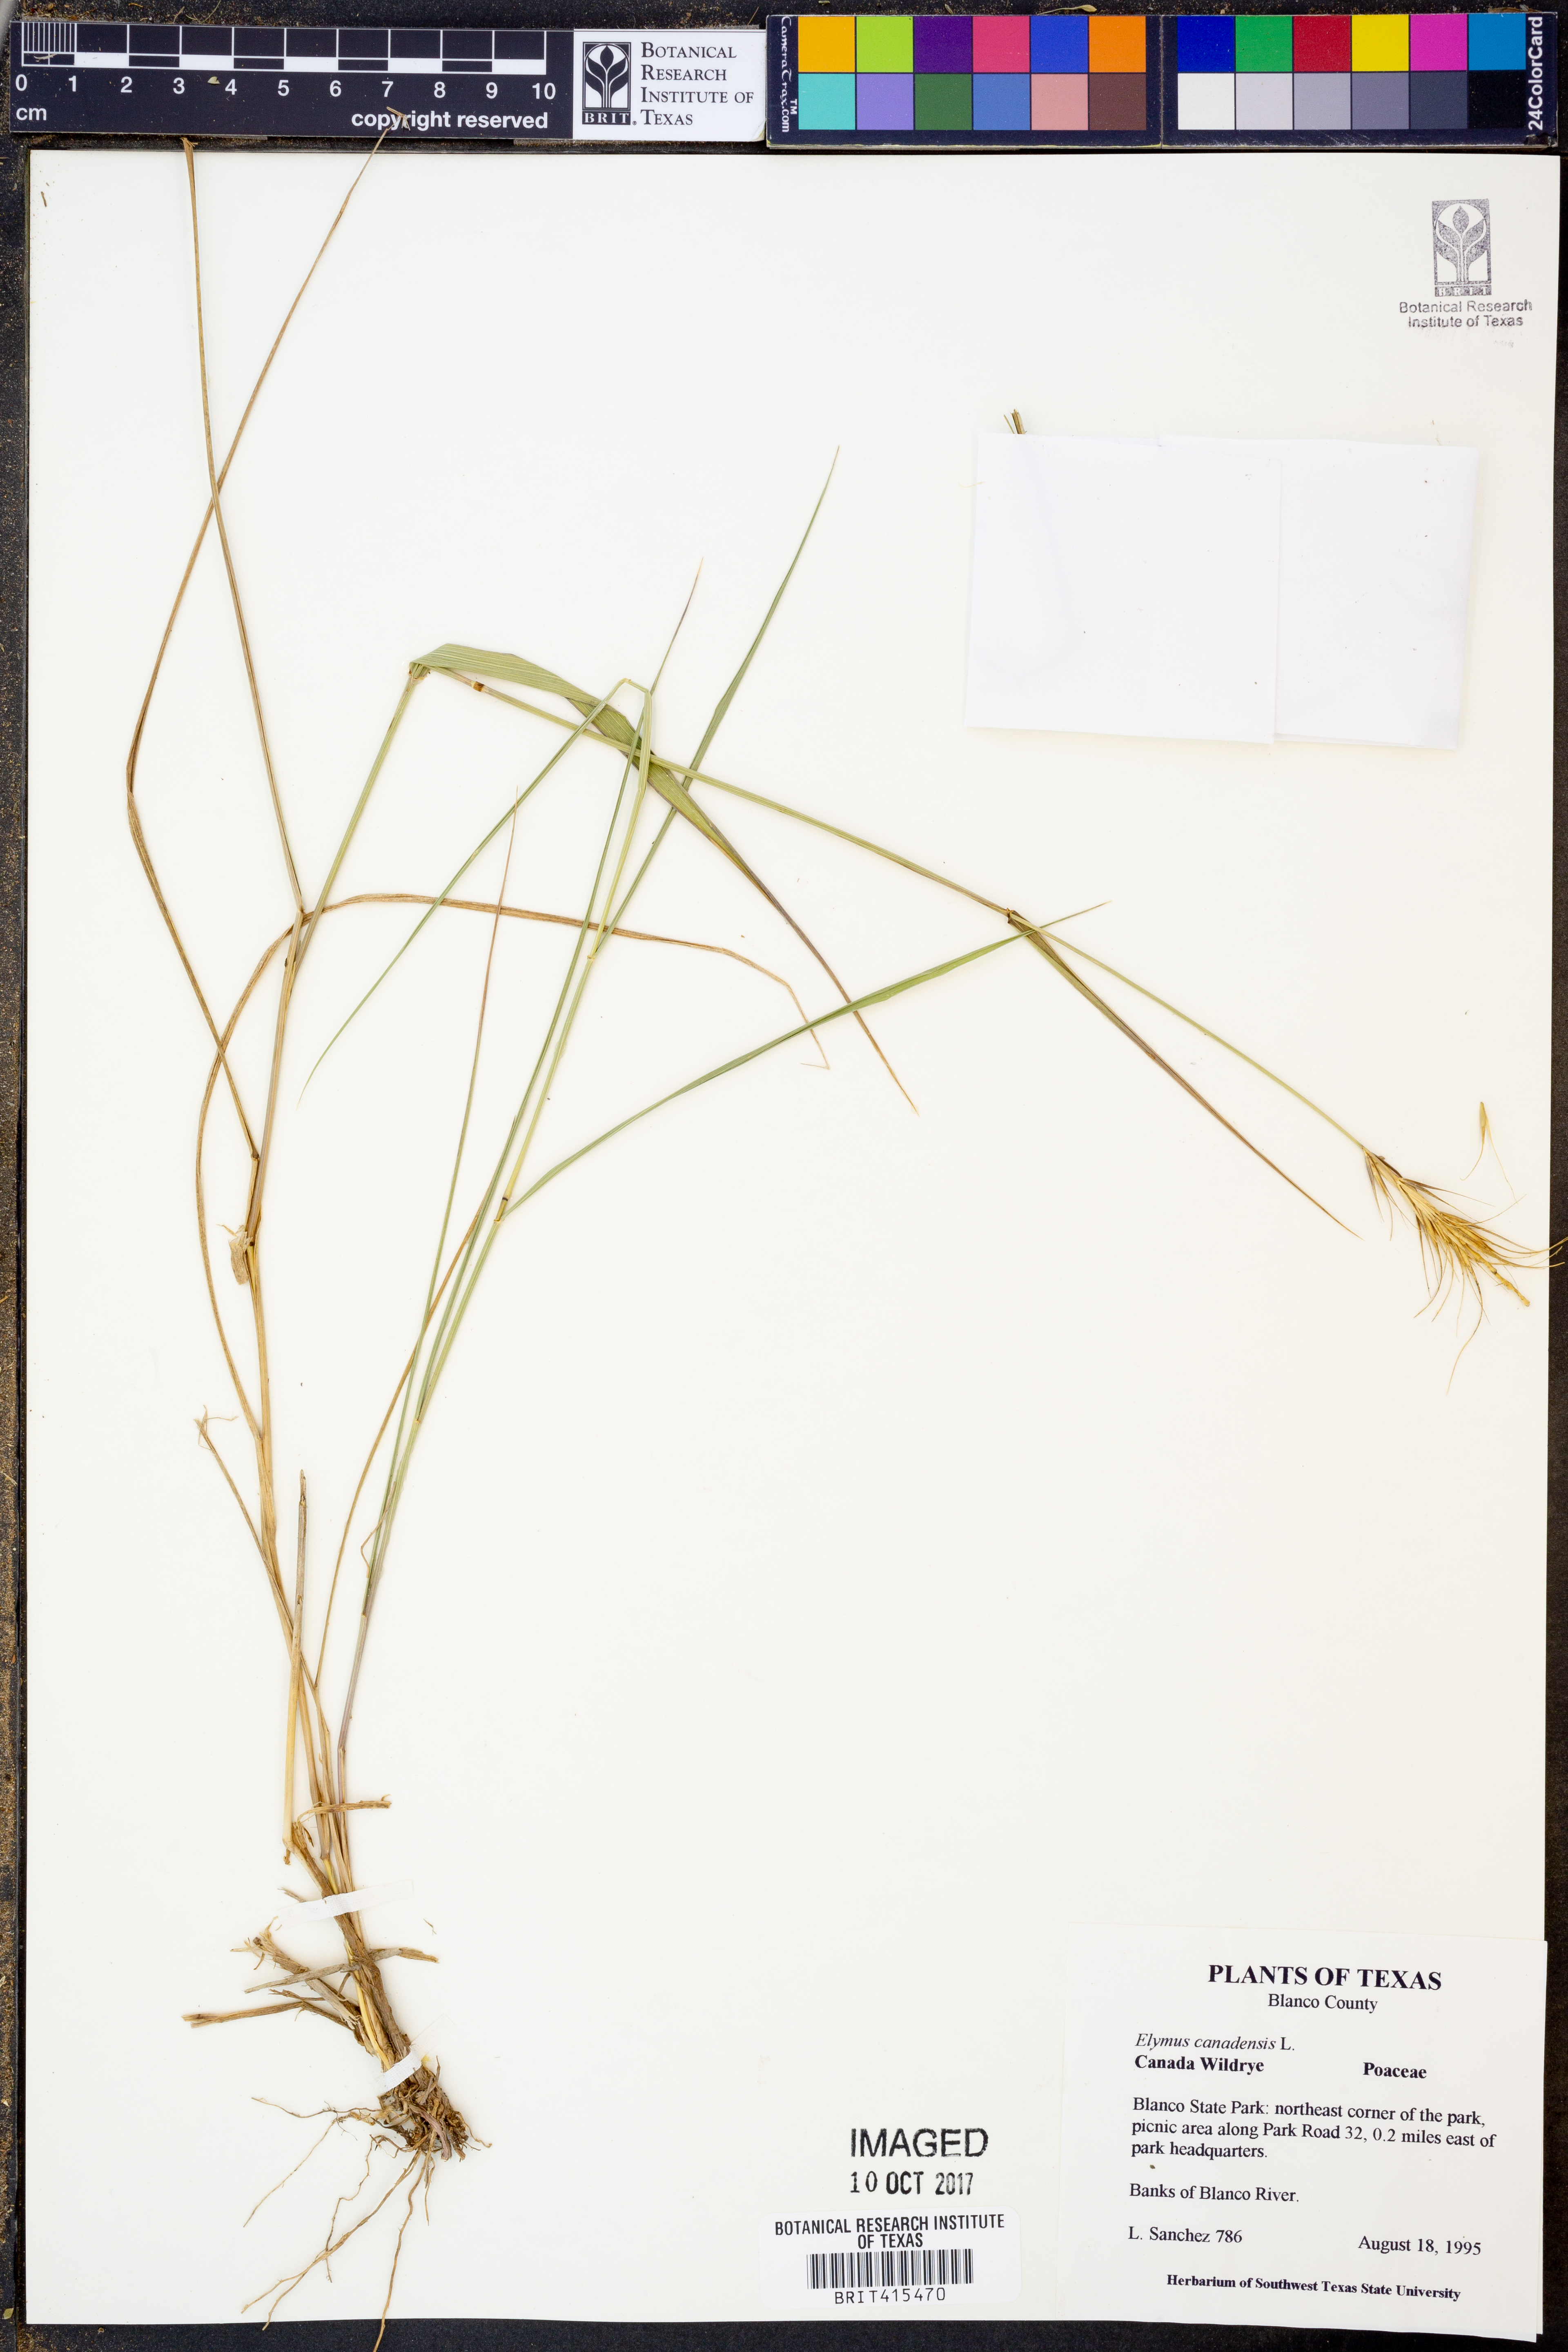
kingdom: Plantae
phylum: Tracheophyta
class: Liliopsida
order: Poales
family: Poaceae
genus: Elymus
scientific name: Elymus canadensis
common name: Canada wild rye
